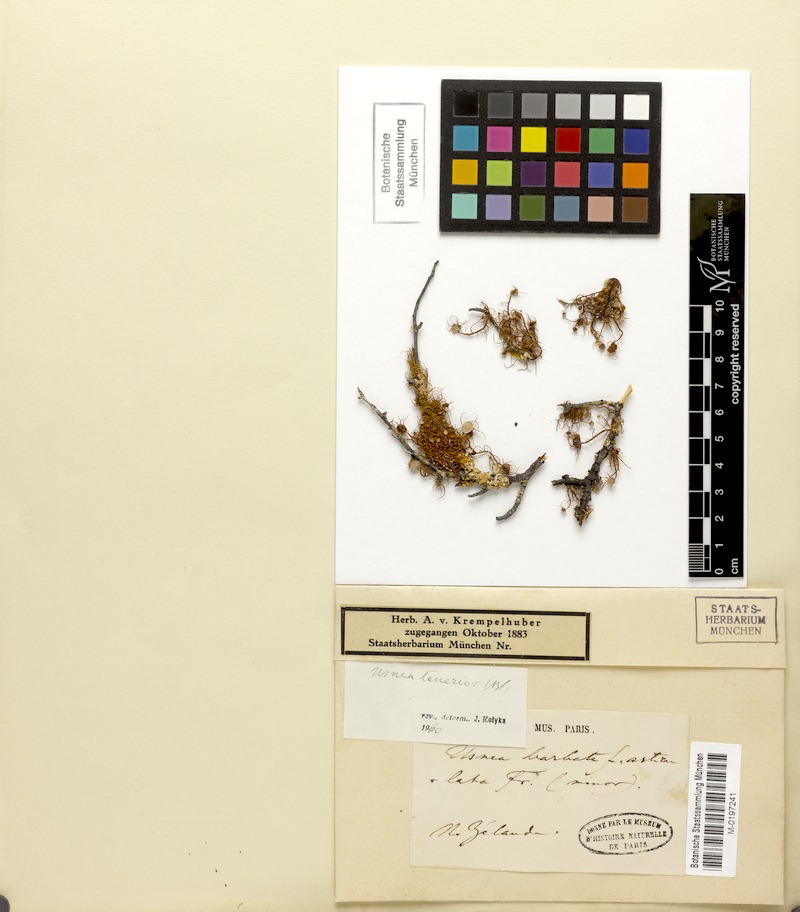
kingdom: Fungi
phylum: Ascomycota
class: Lecanoromycetes
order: Lecanorales
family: Parmeliaceae
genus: Usnea
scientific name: Usnea
